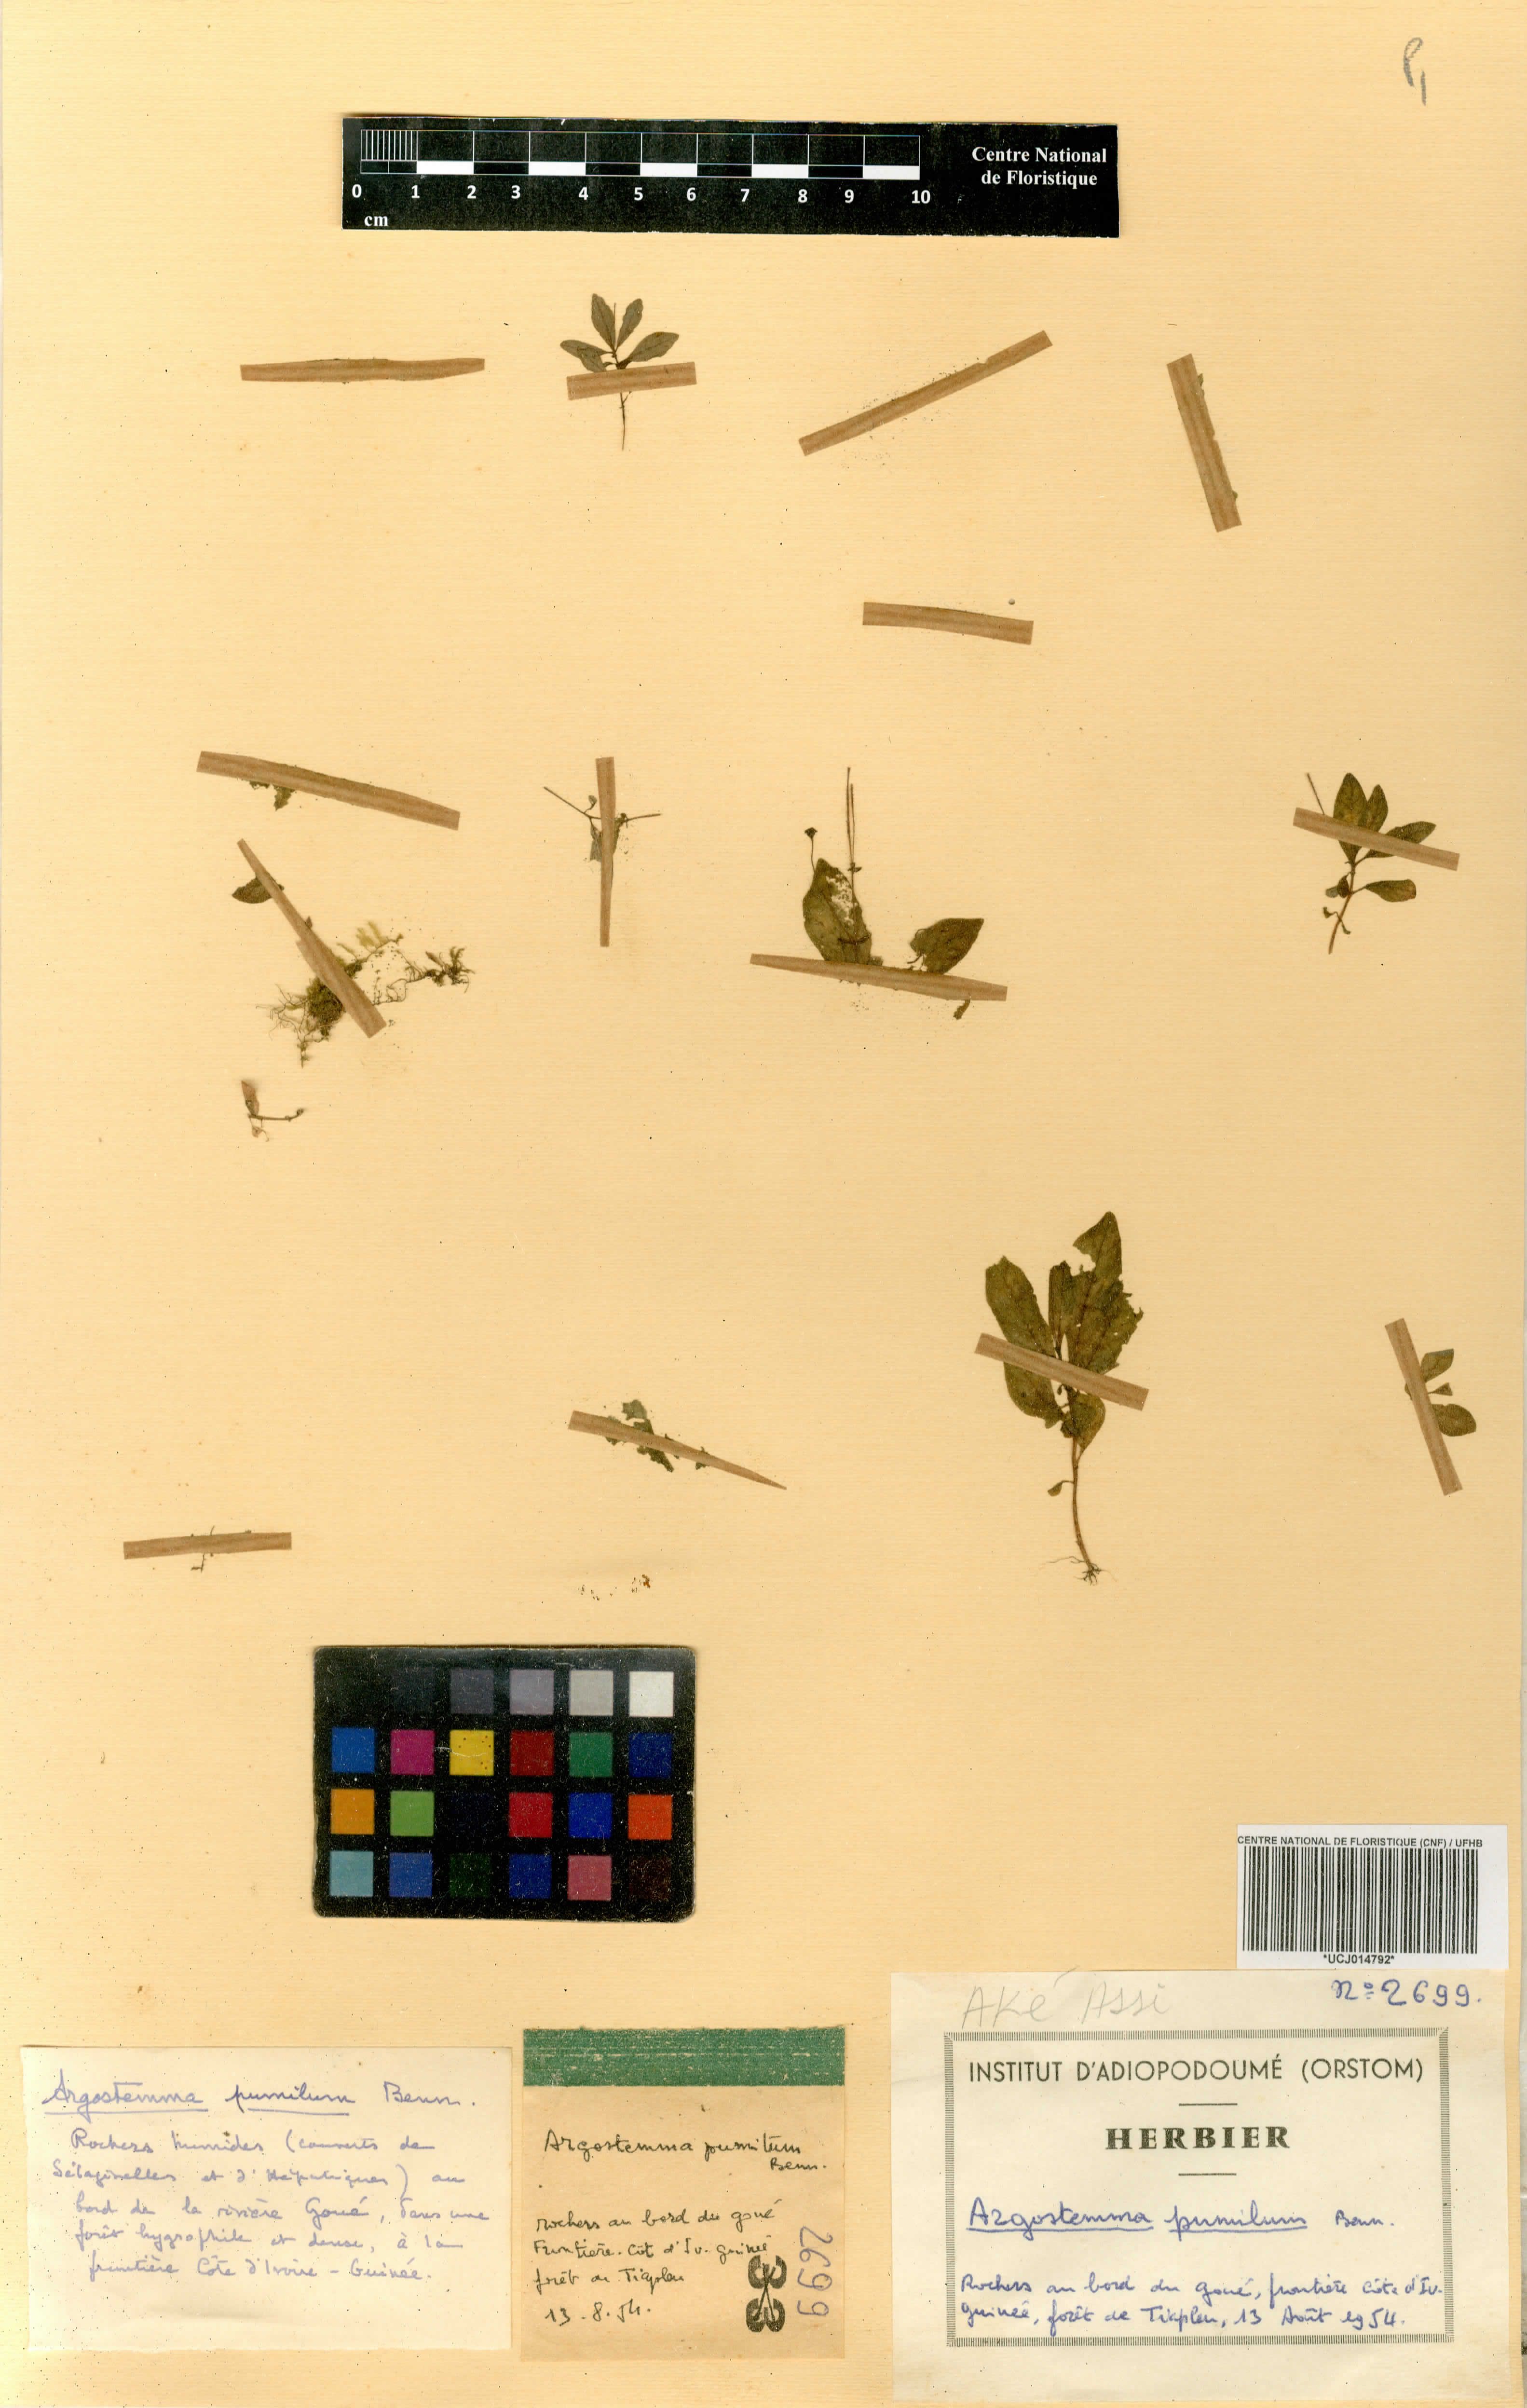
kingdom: Plantae
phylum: Tracheophyta
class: Magnoliopsida
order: Gentianales
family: Rubiaceae
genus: Argostemma
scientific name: Argostemma pumilum
